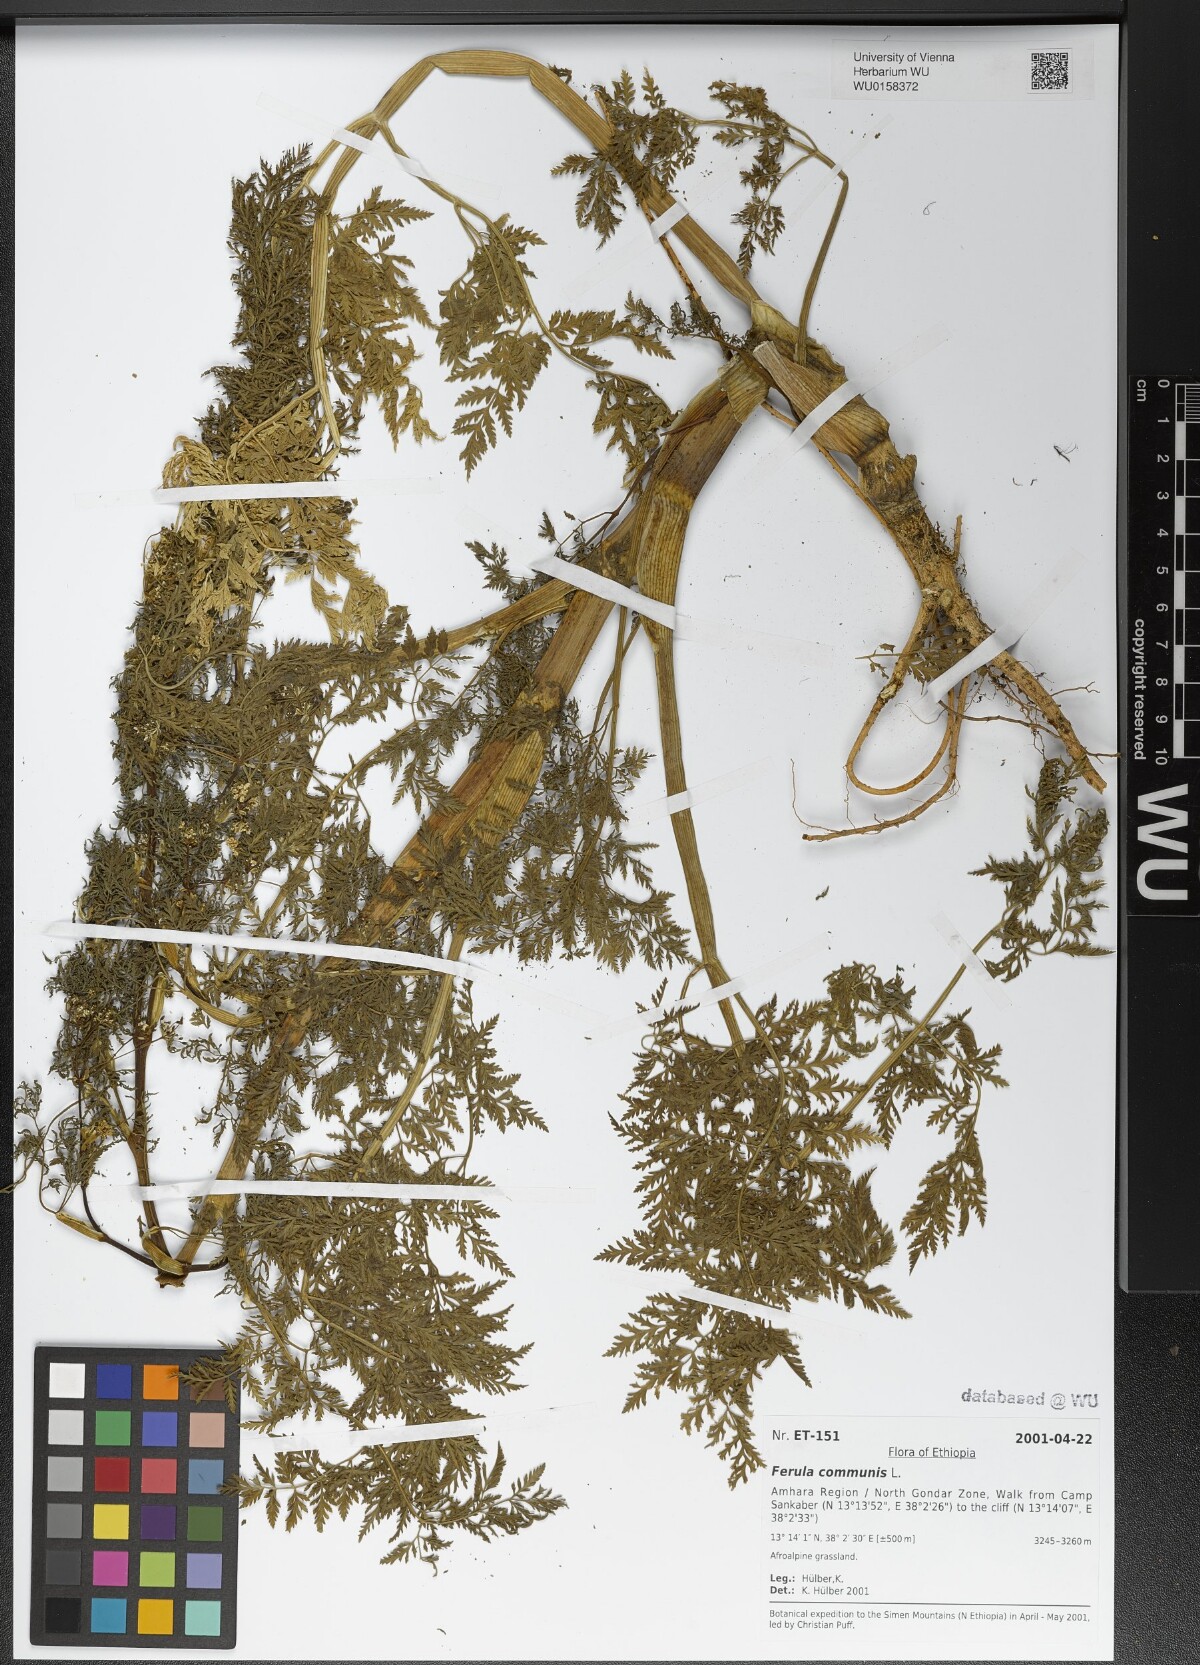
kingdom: Plantae
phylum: Tracheophyta
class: Magnoliopsida
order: Apiales
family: Apiaceae
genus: Ferula
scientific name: Ferula communis
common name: Giant fennel
